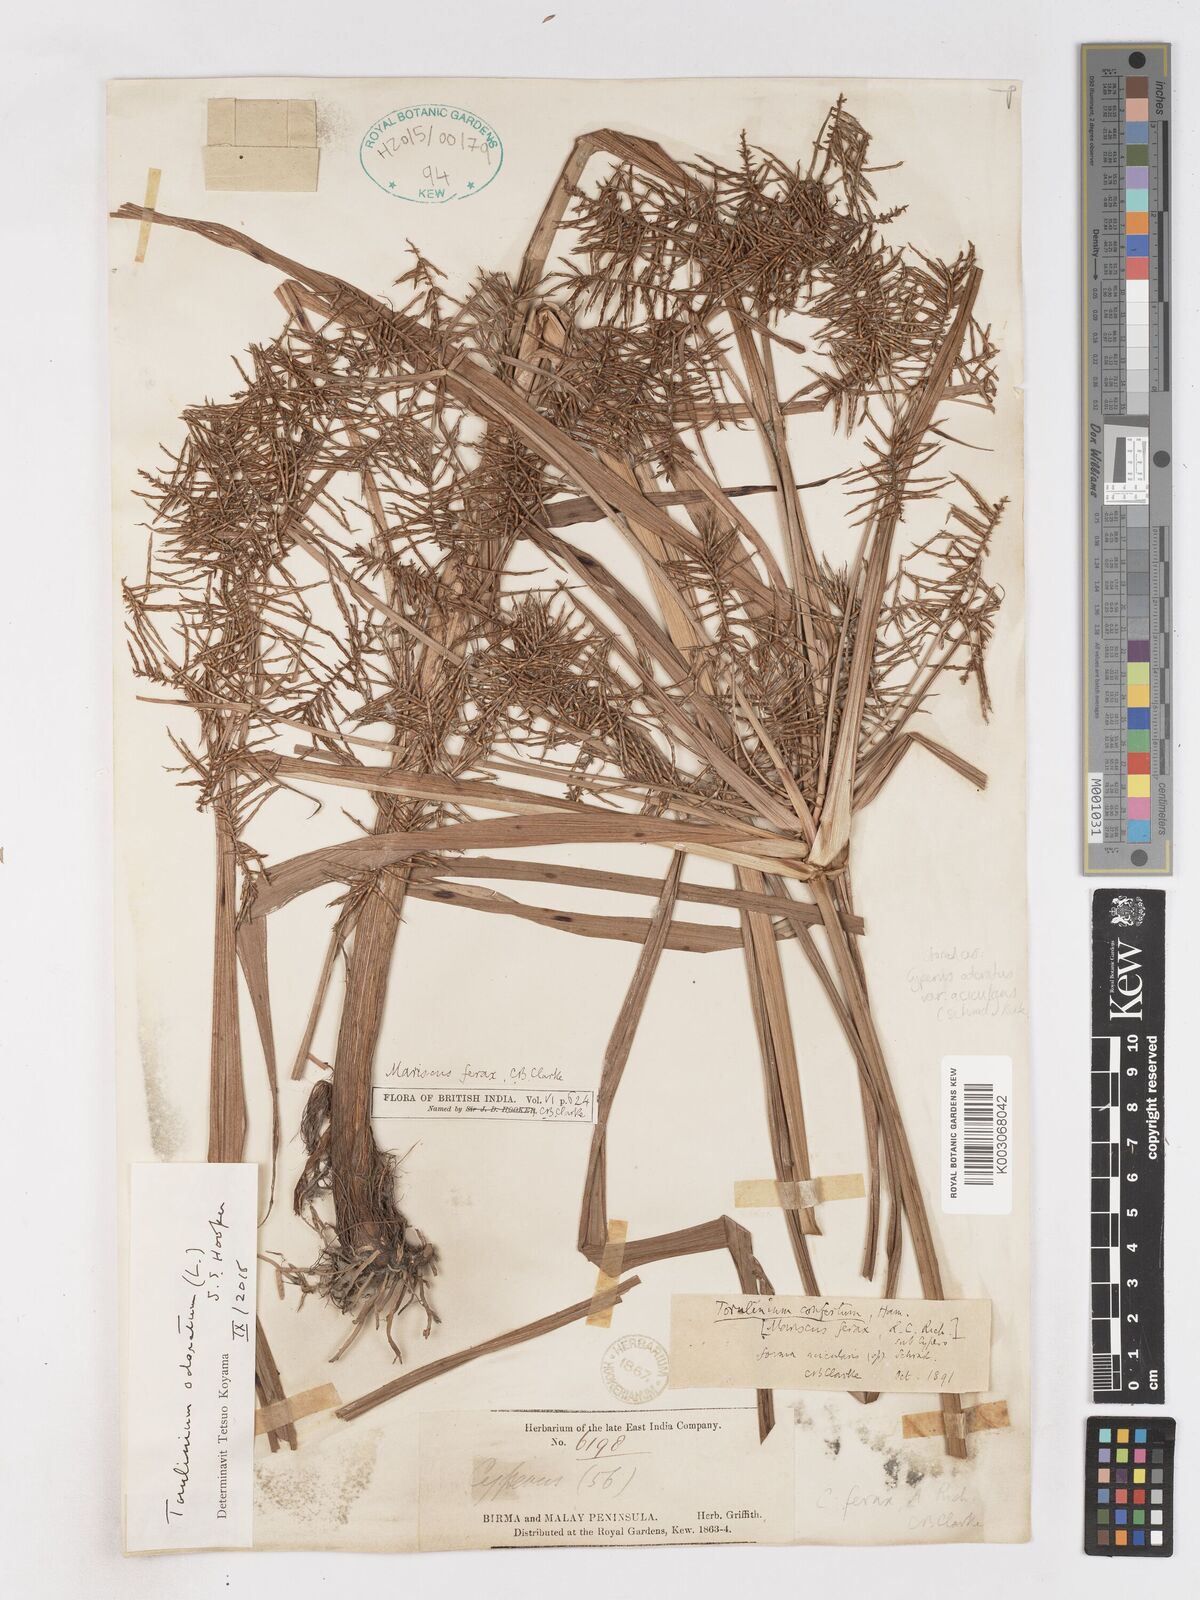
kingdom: Plantae
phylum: Tracheophyta
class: Liliopsida
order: Poales
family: Cyperaceae
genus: Cyperus
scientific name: Cyperus strongii
